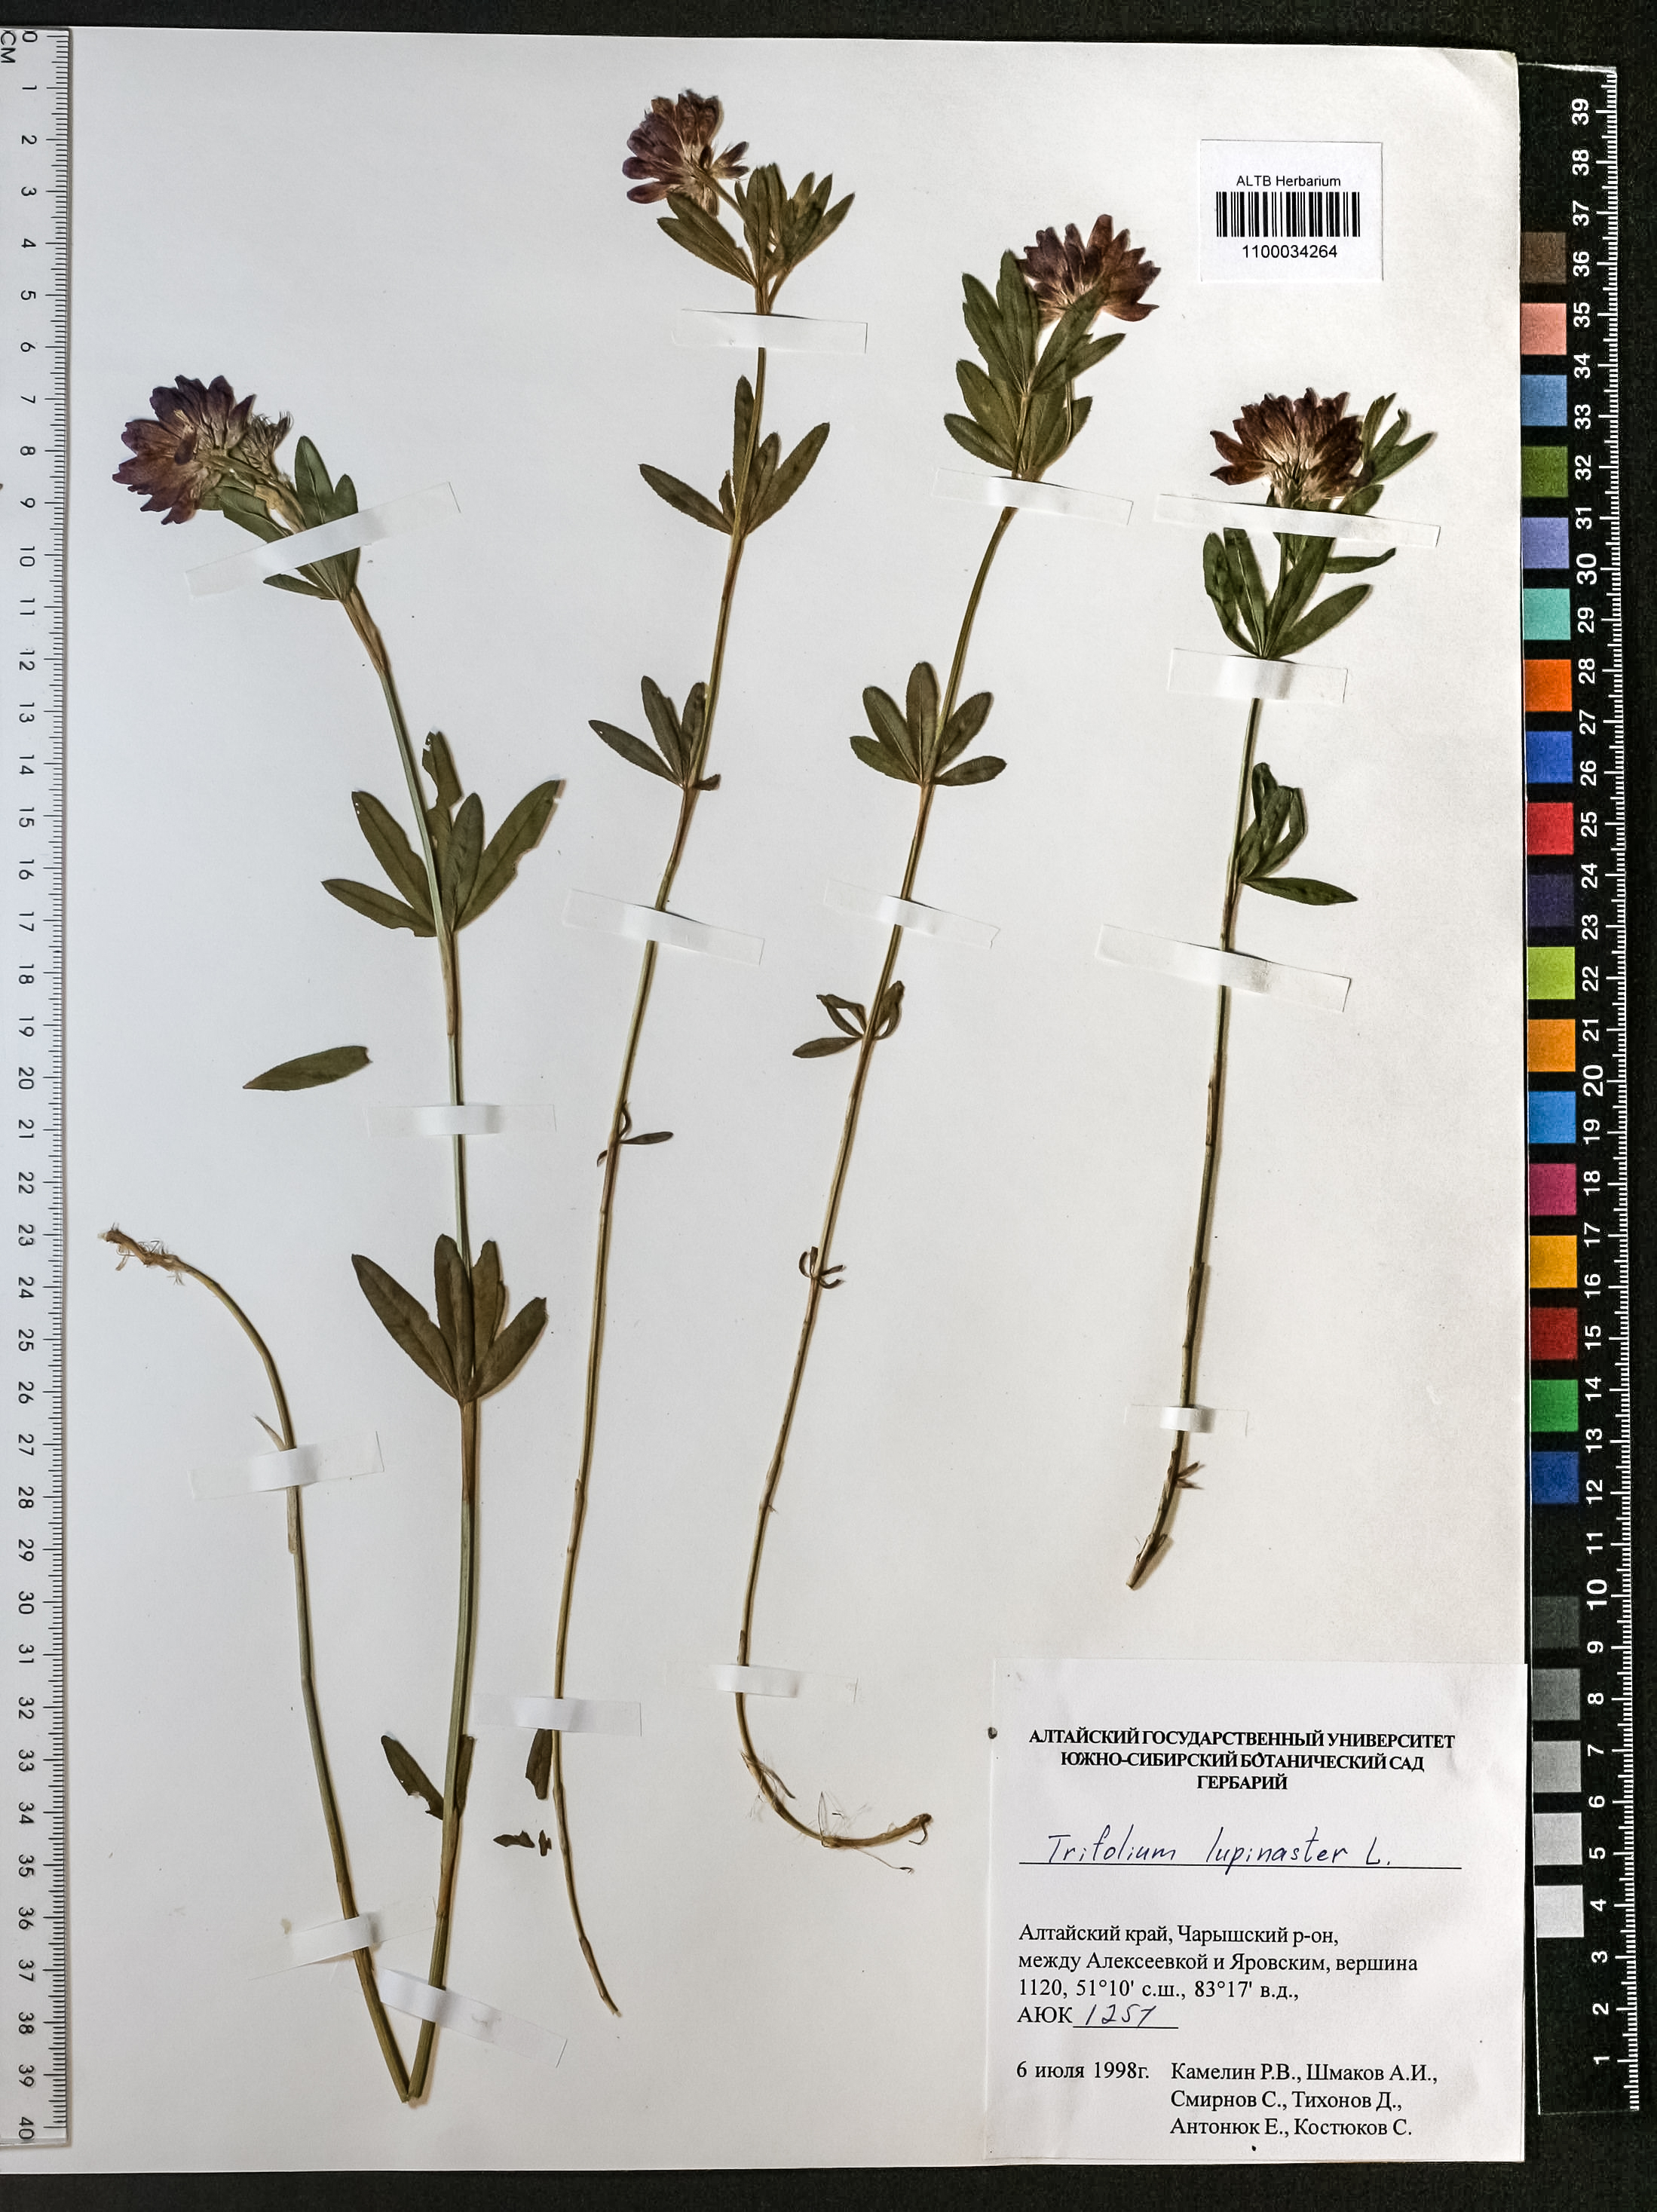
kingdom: Plantae
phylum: Tracheophyta
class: Magnoliopsida
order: Fabales
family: Fabaceae
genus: Trifolium
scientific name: Trifolium lupinaster
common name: Lupine clover
